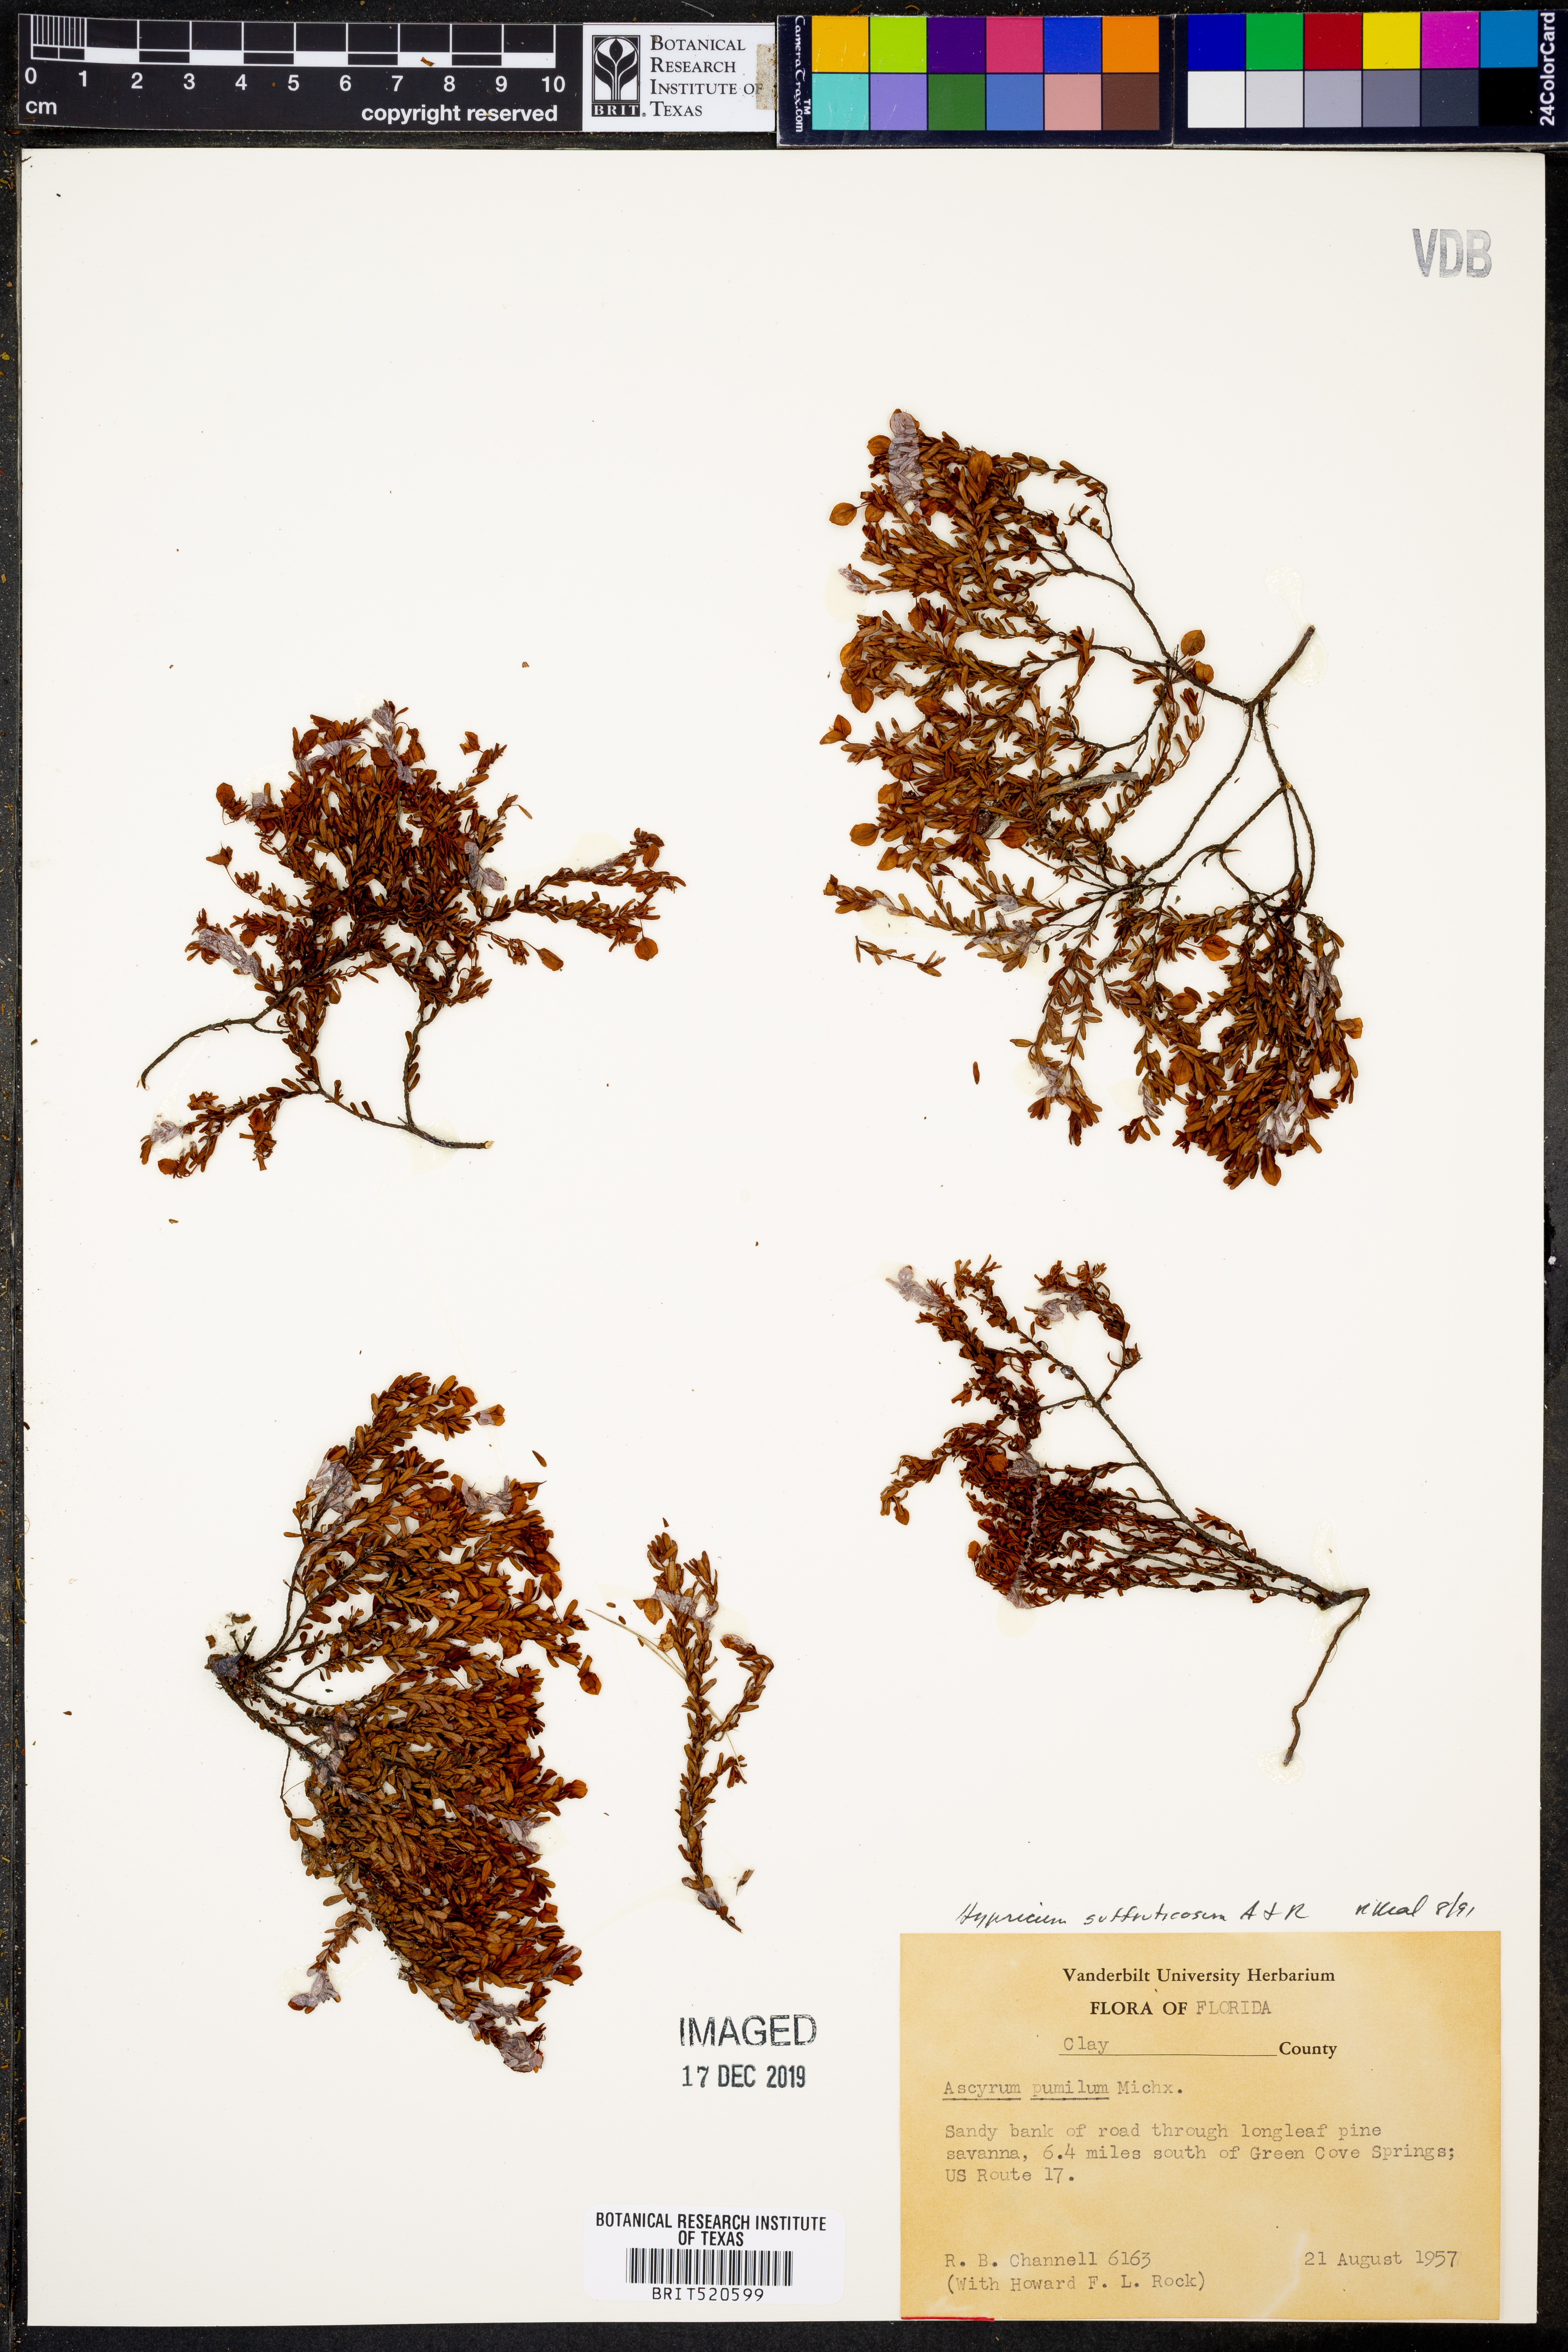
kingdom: Plantae
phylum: Tracheophyta
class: Magnoliopsida
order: Malpighiales
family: Hypericaceae
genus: Hypericum
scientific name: Hypericum suffruticosum
